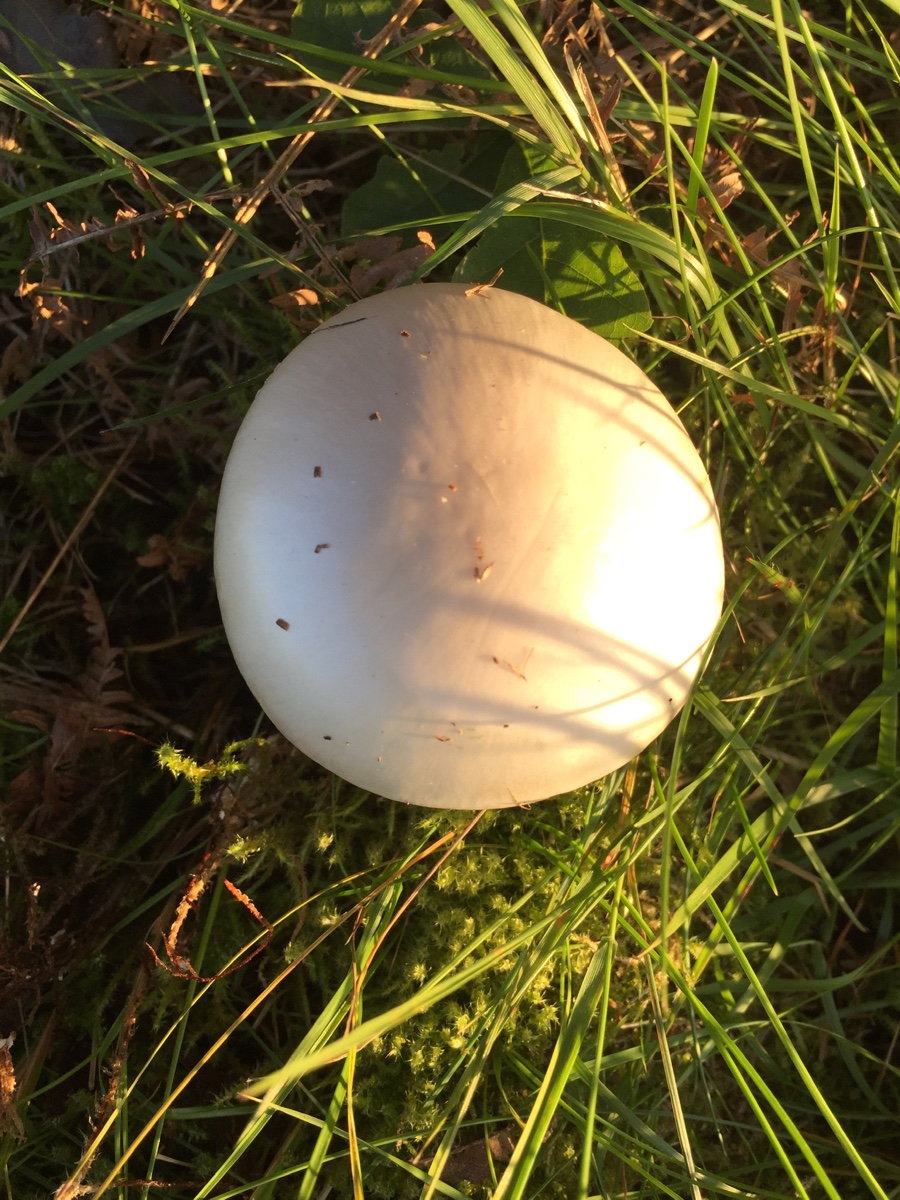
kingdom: Fungi
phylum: Basidiomycota
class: Agaricomycetes
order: Agaricales
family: Amanitaceae
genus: Amanita
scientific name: Amanita virosa
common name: snehvid fluesvamp
